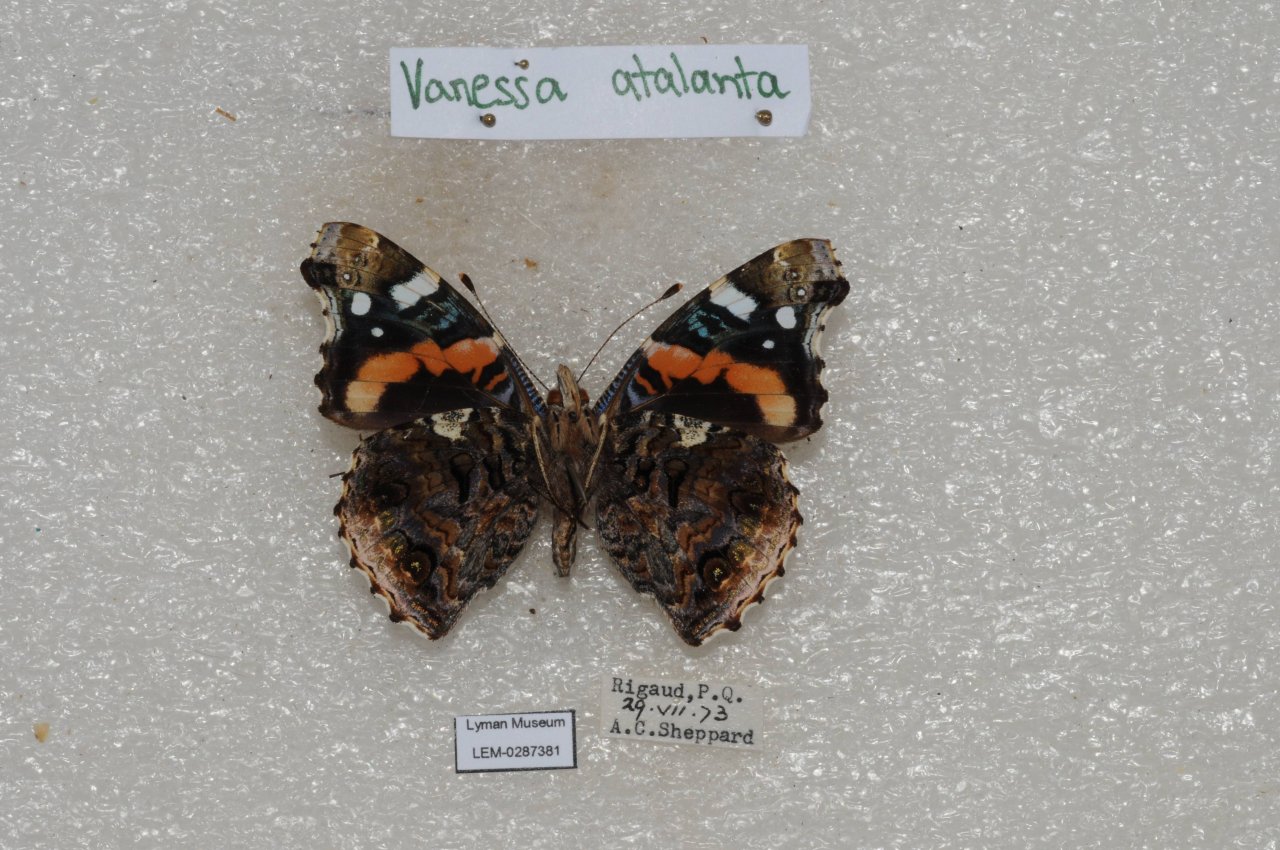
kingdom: Animalia
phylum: Arthropoda
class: Insecta
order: Lepidoptera
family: Nymphalidae
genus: Vanessa
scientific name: Vanessa atalanta
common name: Red Admiral
